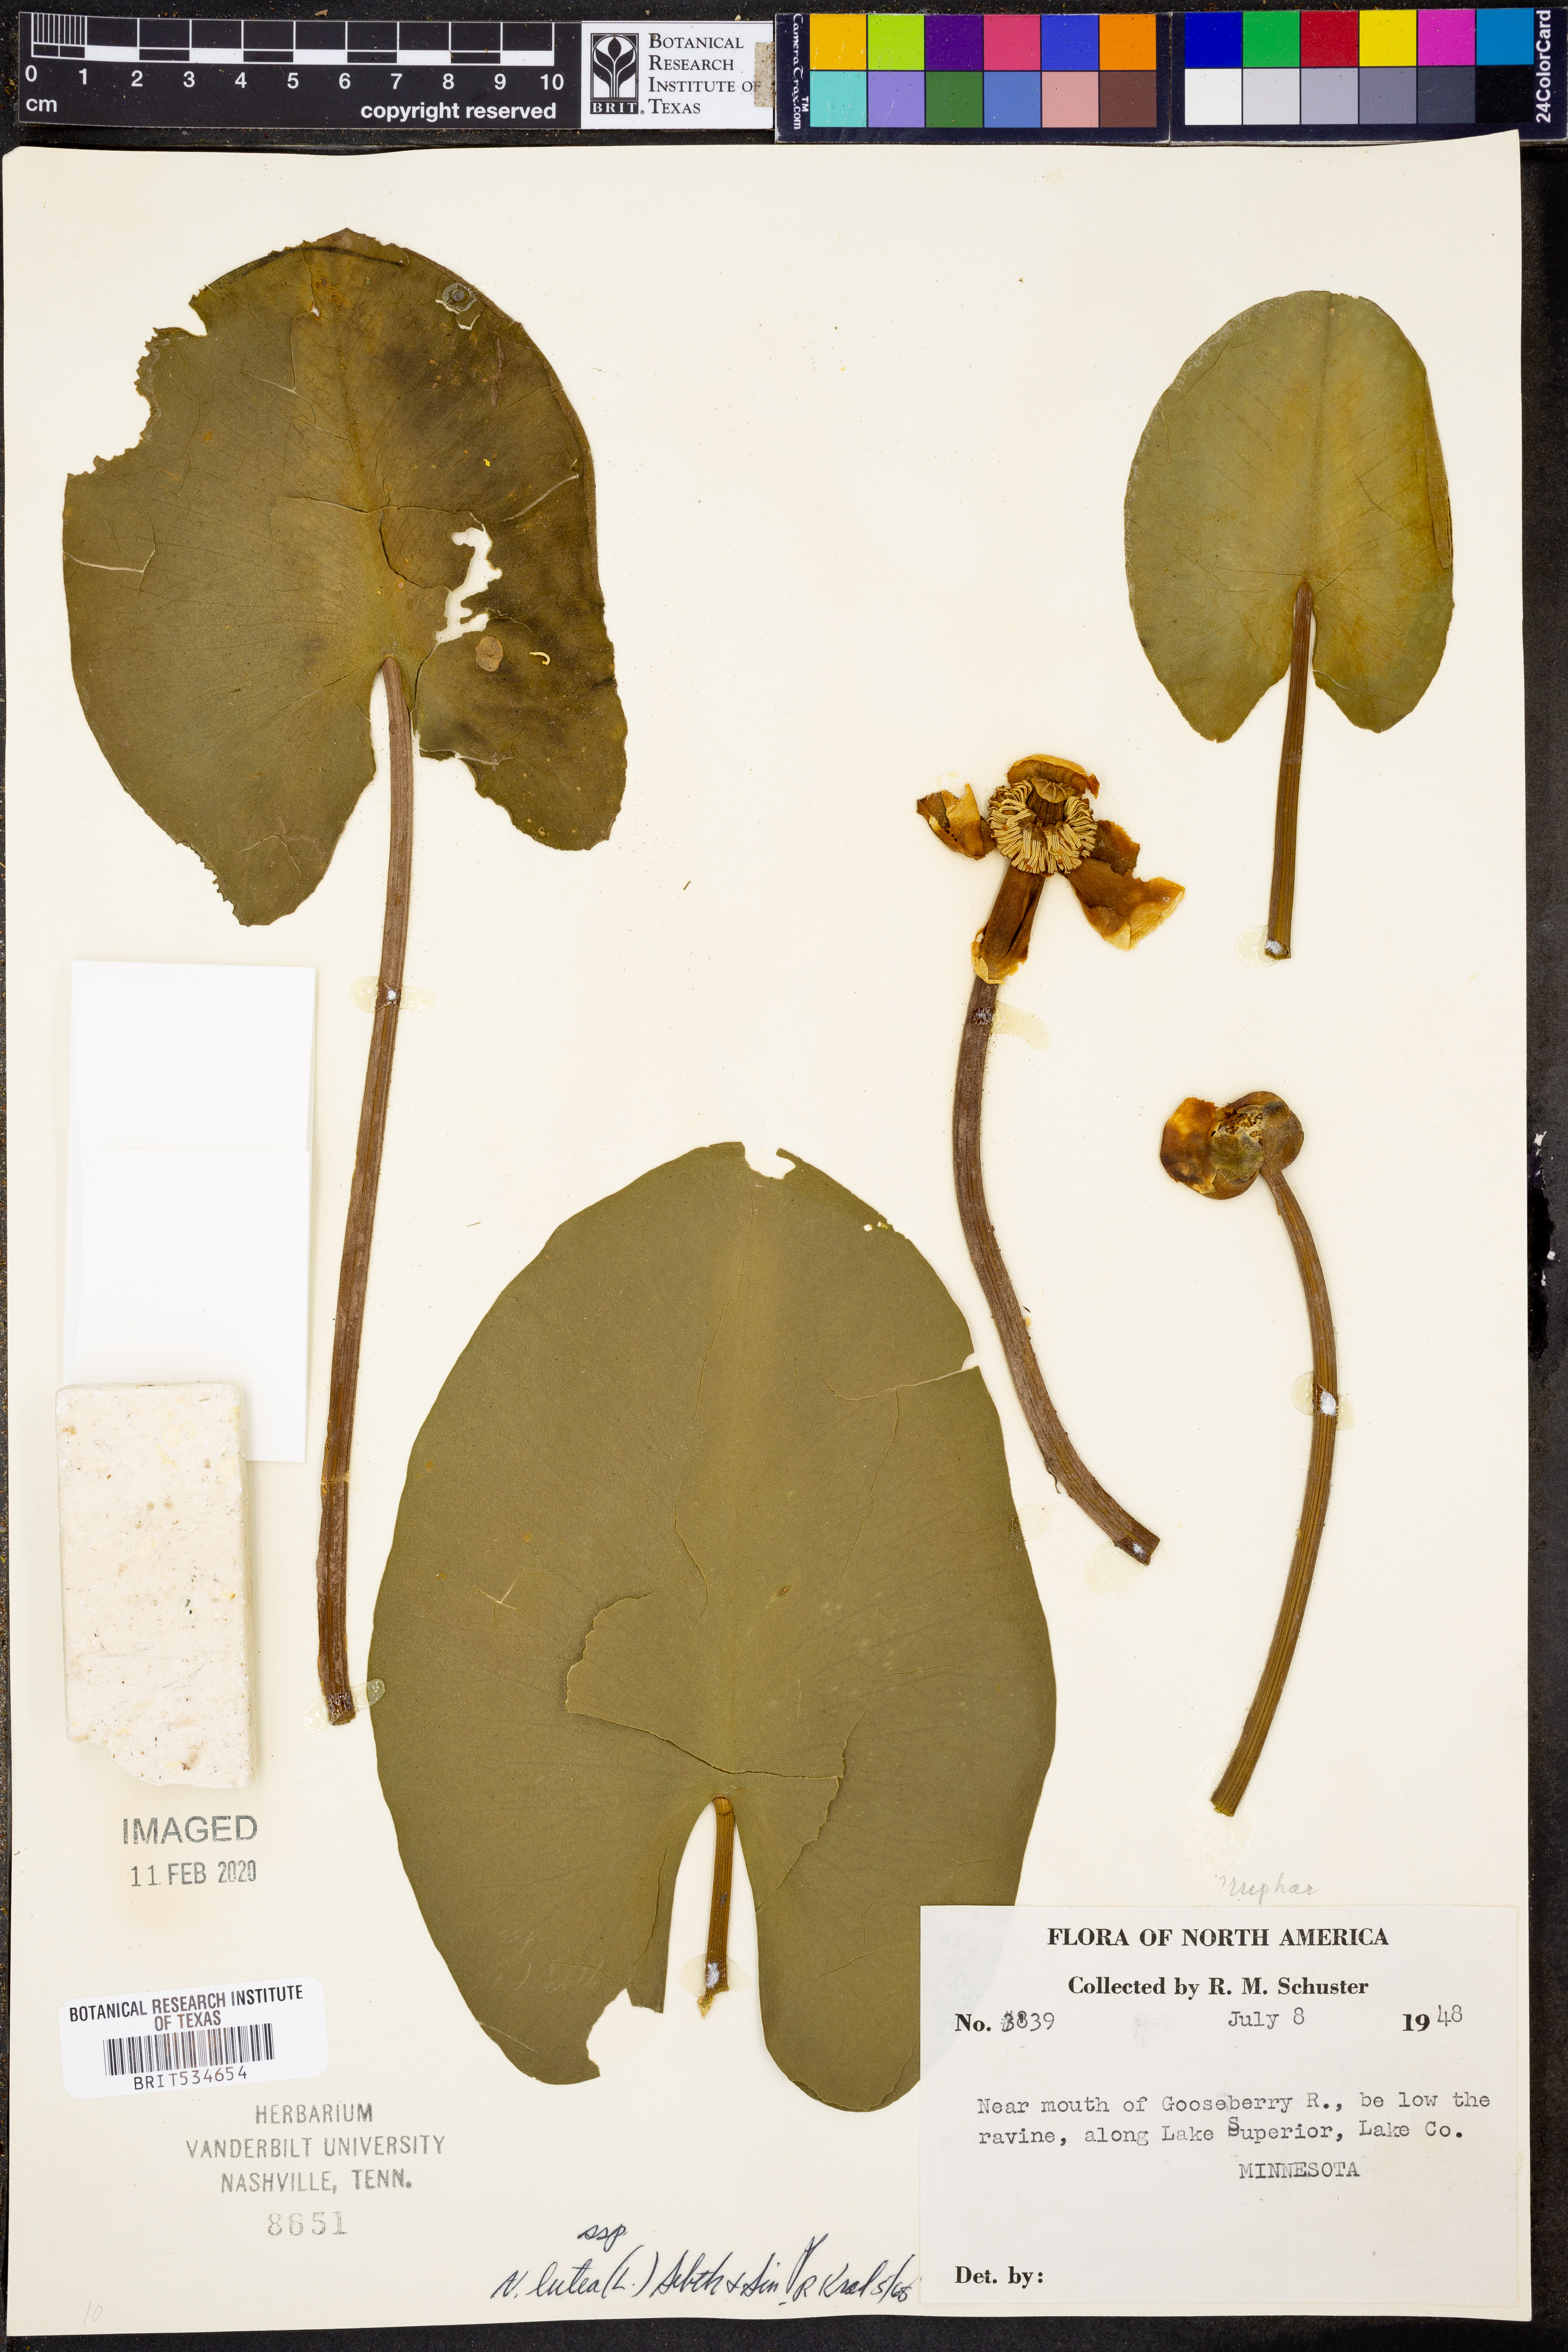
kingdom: Plantae
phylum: Tracheophyta
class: Magnoliopsida
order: Nymphaeales
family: Nymphaeaceae
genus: Nuphar
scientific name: Nuphar lutea
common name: Yellow water-lily
